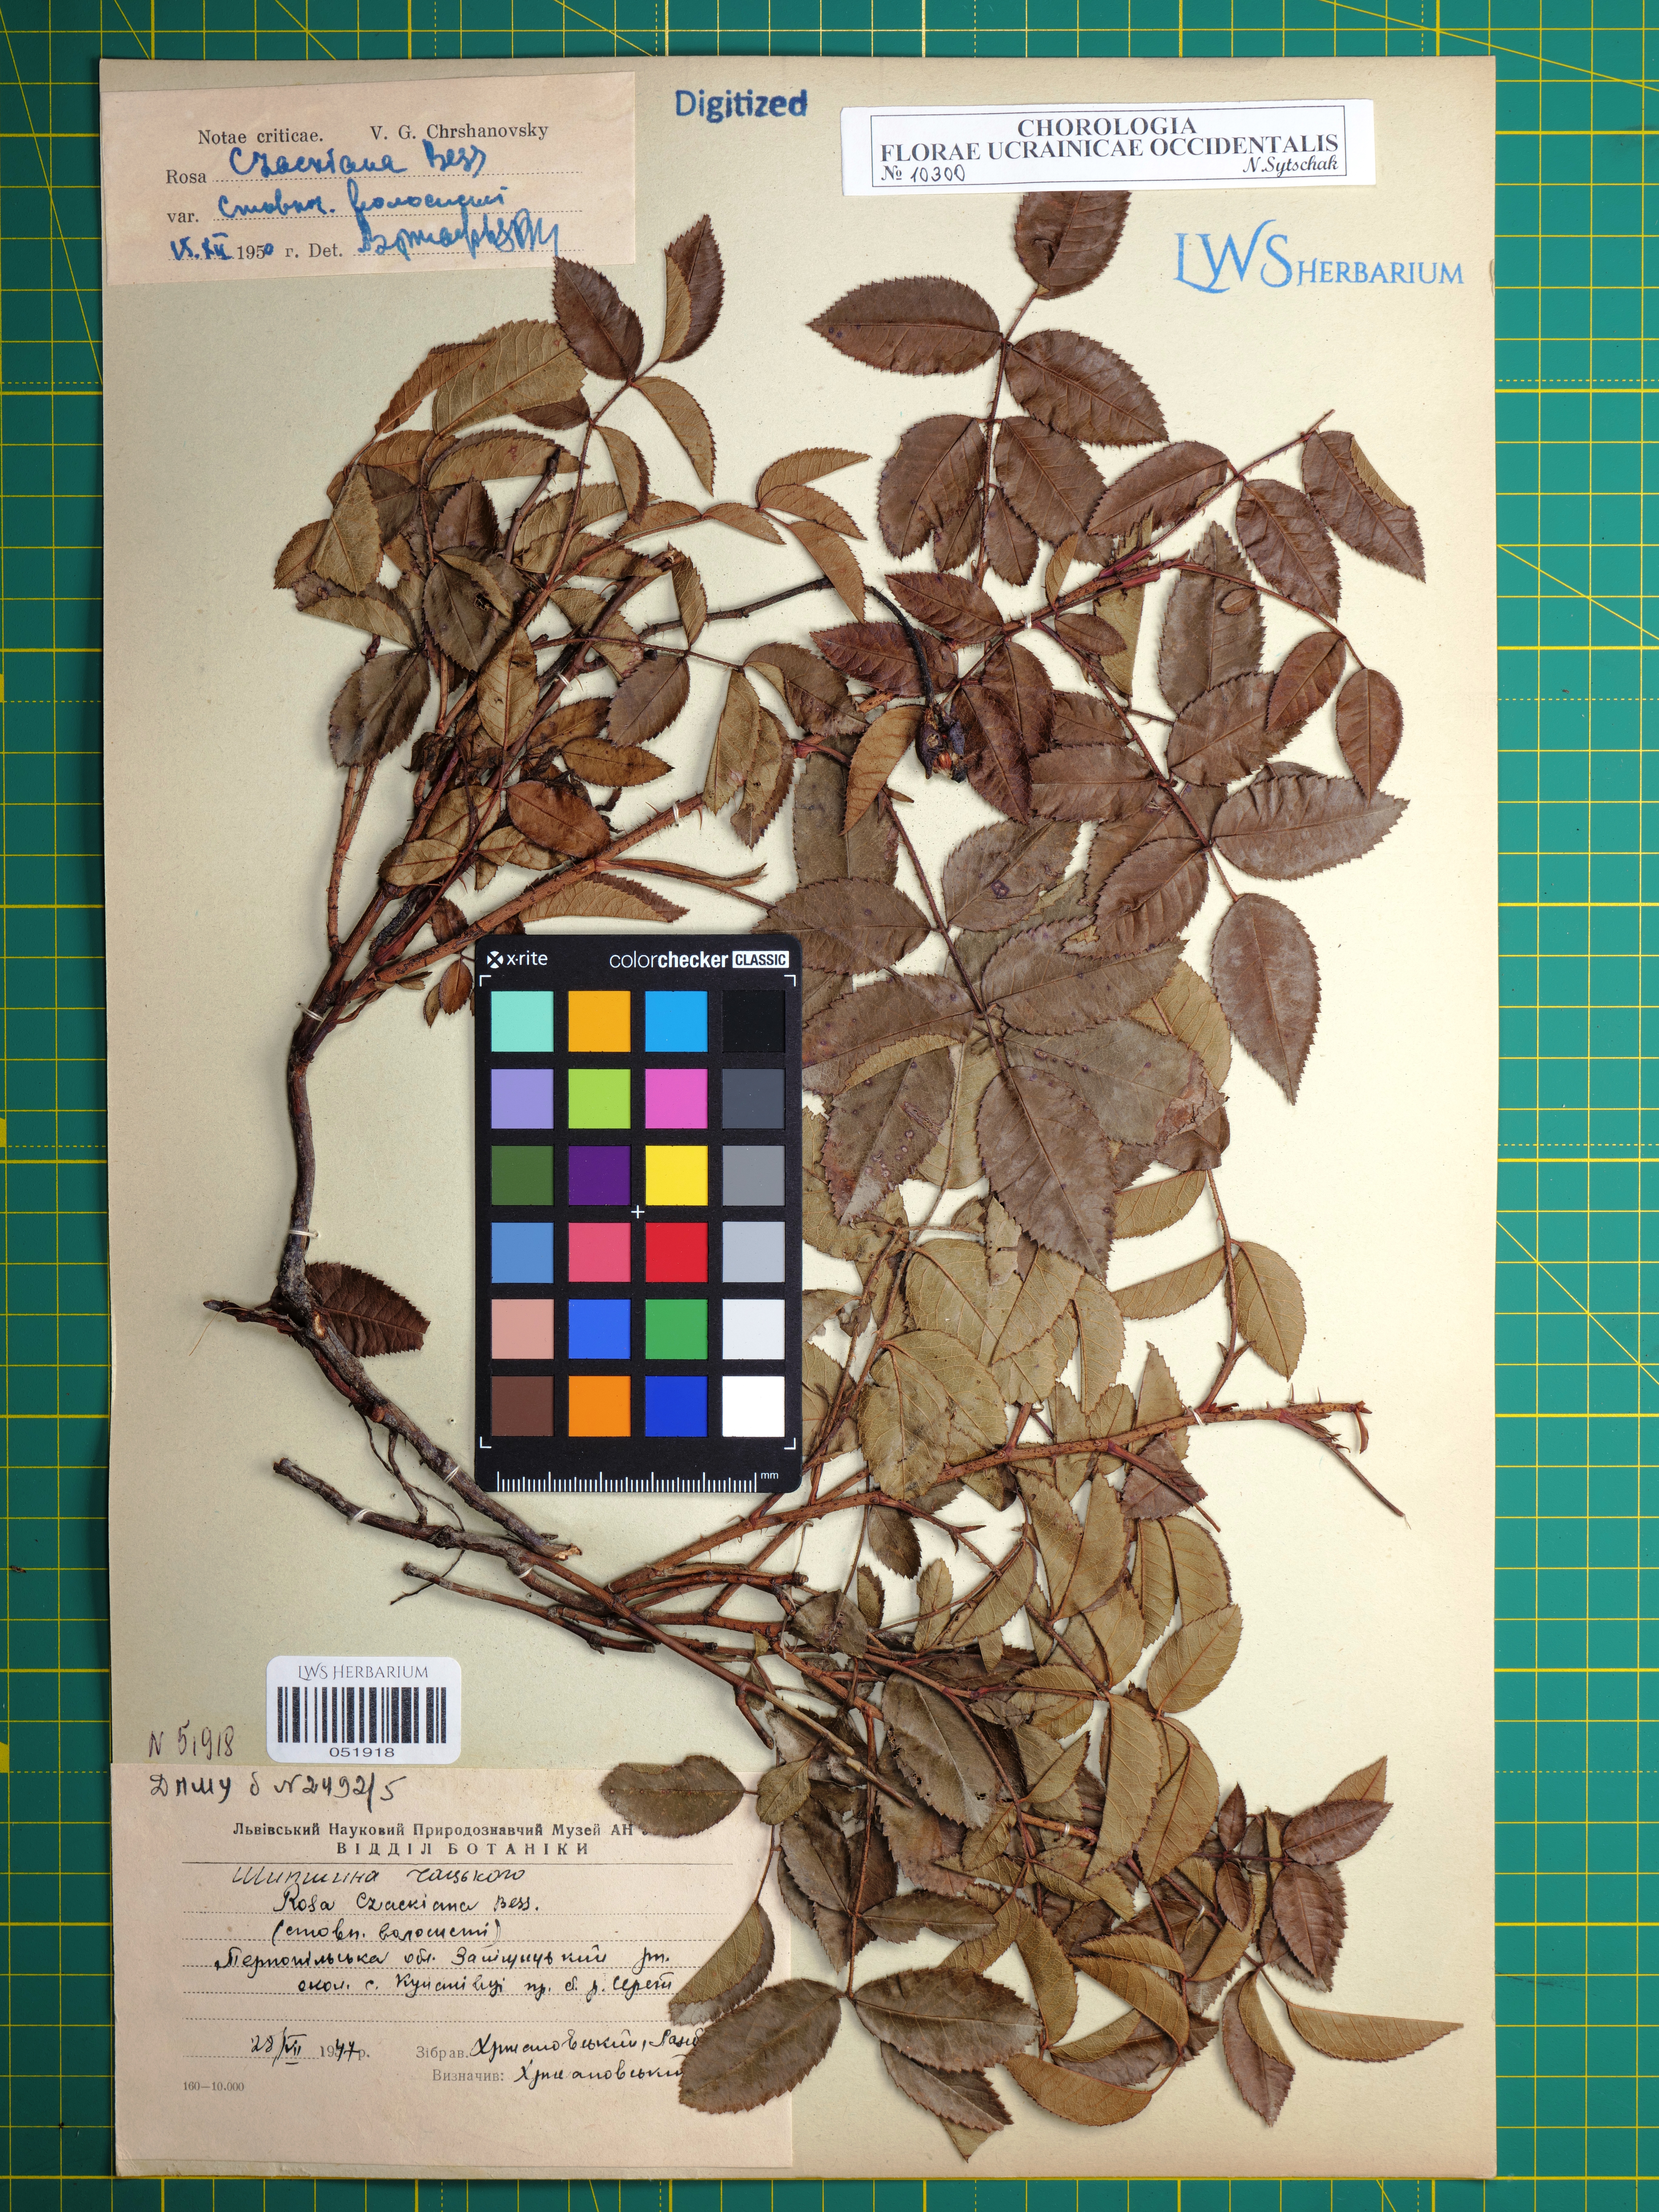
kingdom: Plantae
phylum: Tracheophyta
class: Magnoliopsida
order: Rosales
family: Rosaceae
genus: Rosa
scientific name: Rosa gallica
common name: French rose
